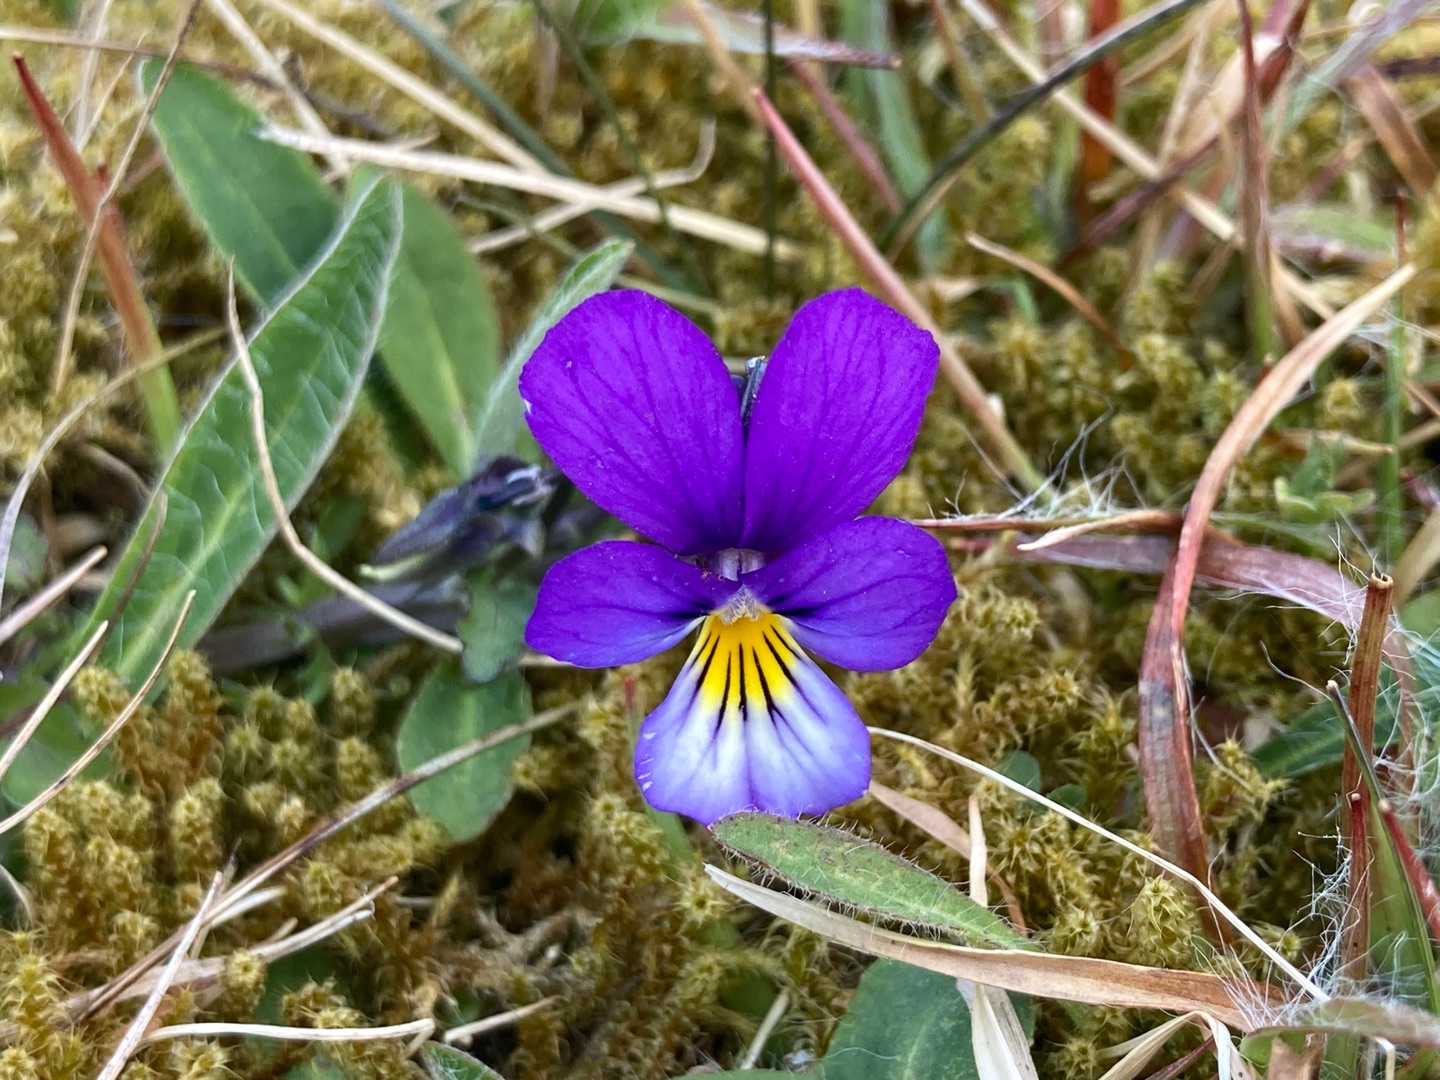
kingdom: Plantae
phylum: Tracheophyta
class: Magnoliopsida
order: Malpighiales
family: Violaceae
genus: Viola
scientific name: Viola tricolor
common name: Stedmoderblomst
